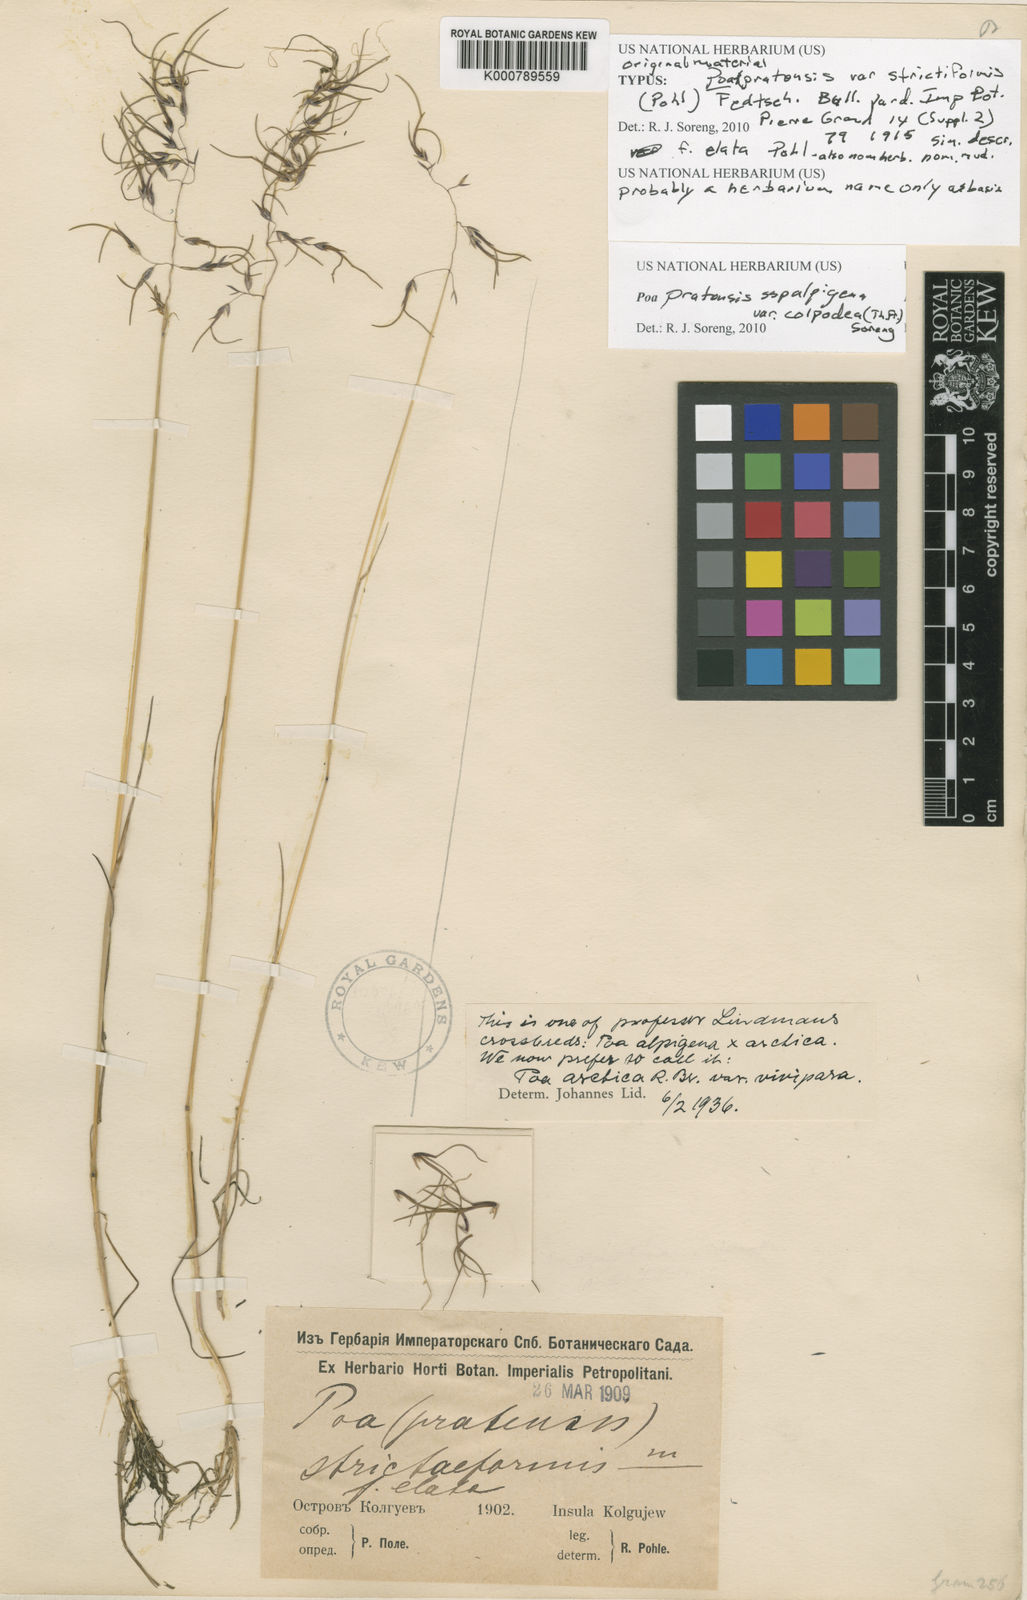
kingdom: Plantae
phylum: Tracheophyta
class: Liliopsida
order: Poales
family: Poaceae
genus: Poa
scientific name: Poa pratensis
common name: Kentucky bluegrass
